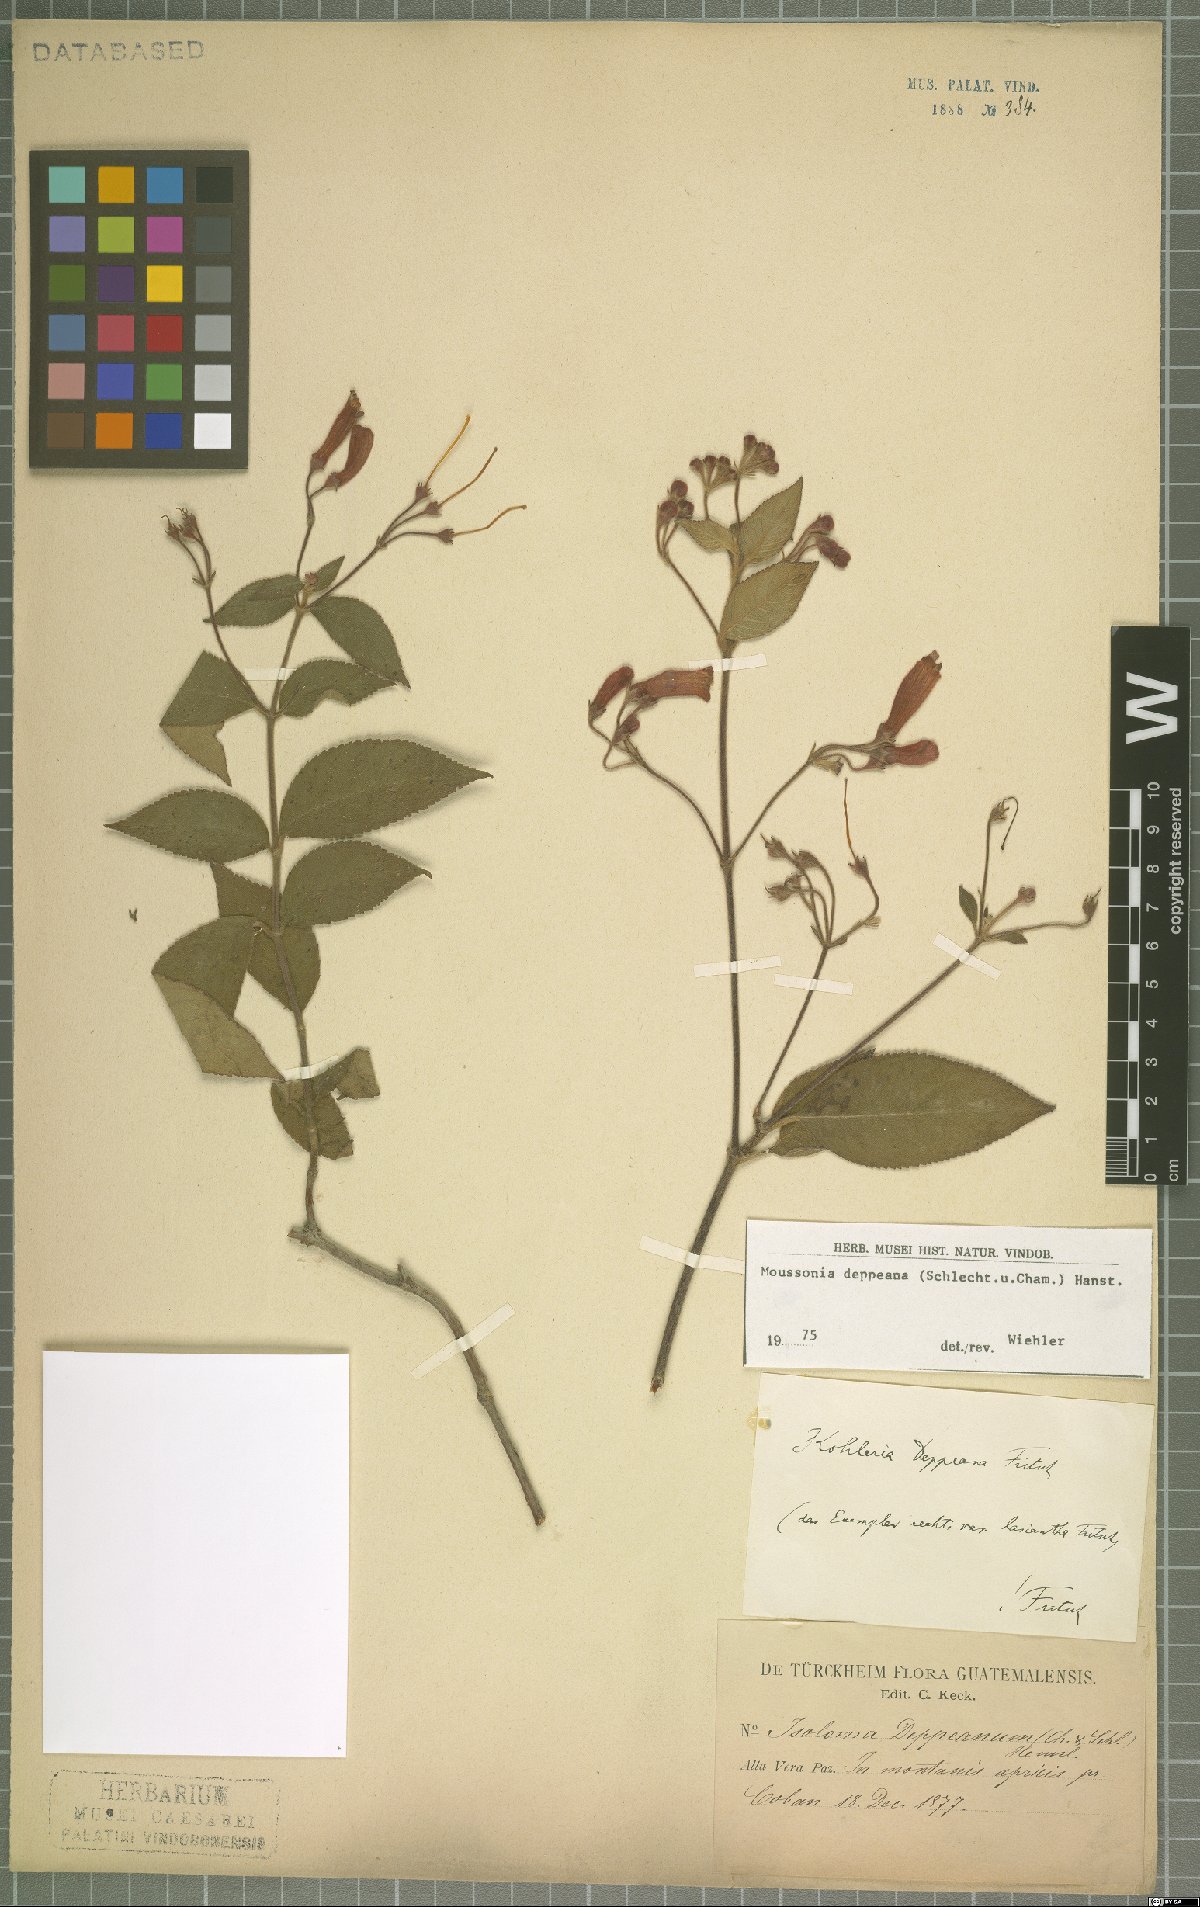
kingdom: Plantae
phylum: Tracheophyta
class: Magnoliopsida
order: Lamiales
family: Gesneriaceae
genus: Moussonia
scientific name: Moussonia deppeana
